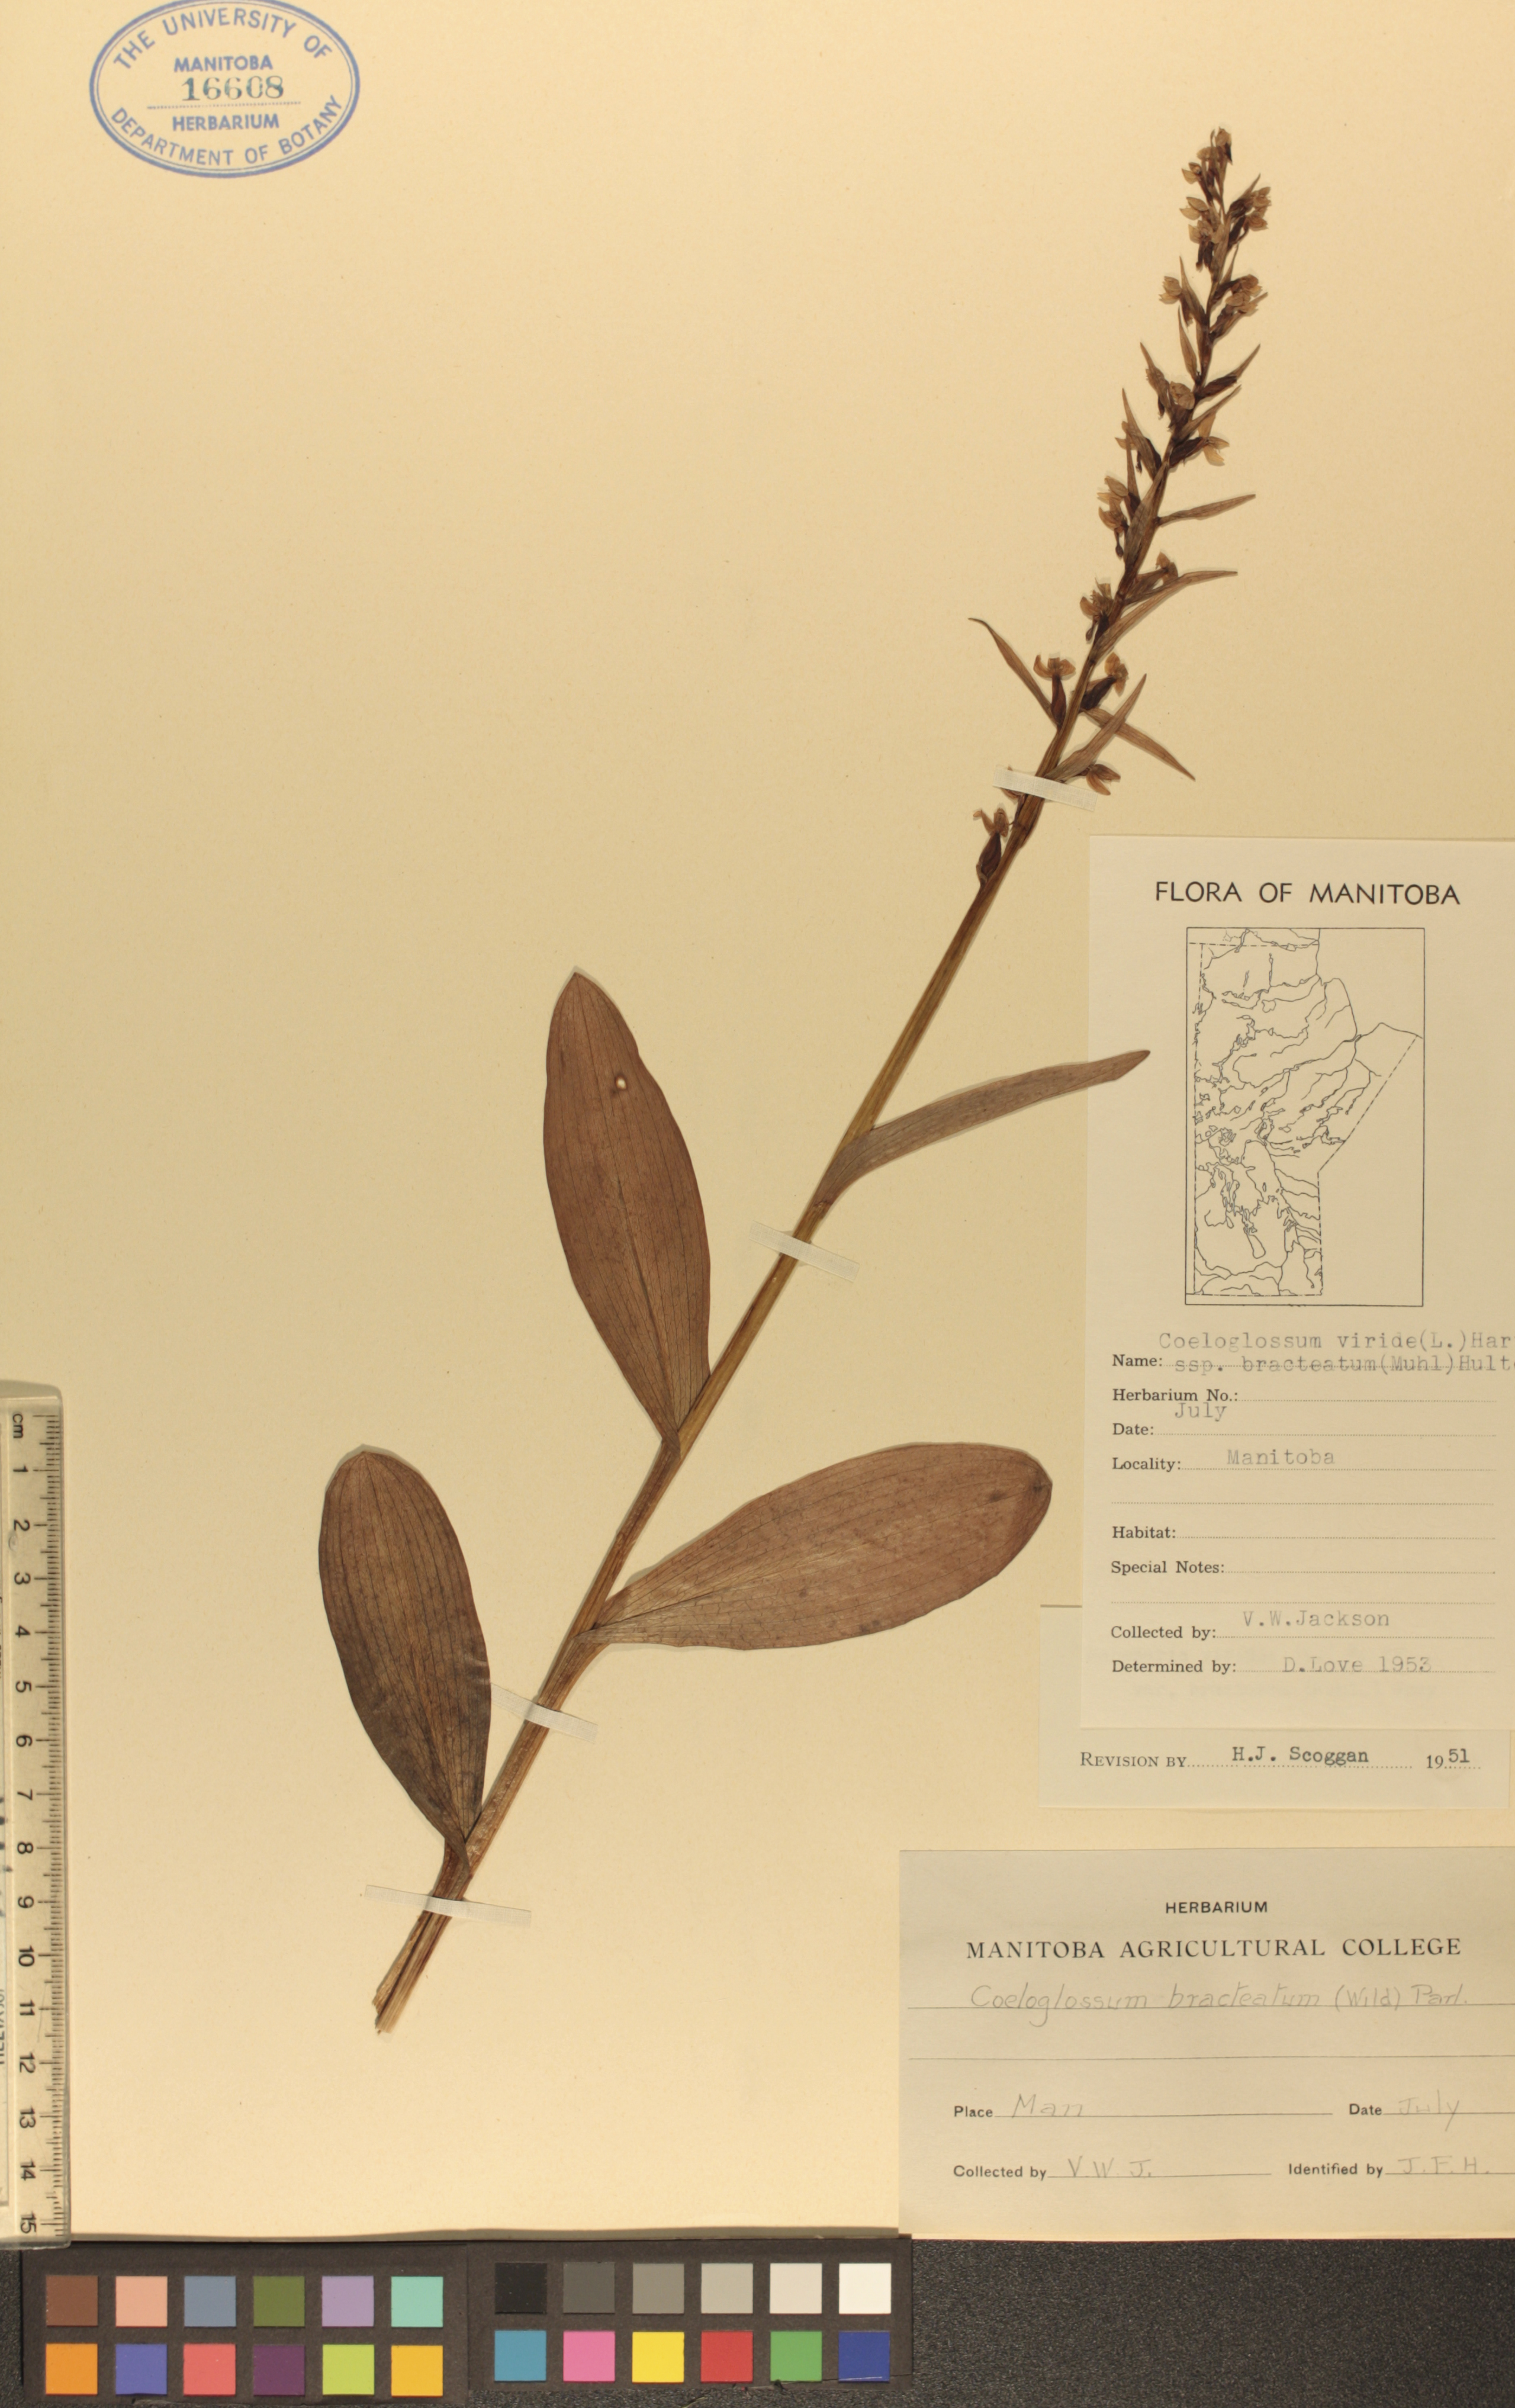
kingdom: Plantae
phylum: Tracheophyta
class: Liliopsida
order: Asparagales
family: Orchidaceae
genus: Dactylorhiza
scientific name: Dactylorhiza viridis
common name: Longbract frog orchid
